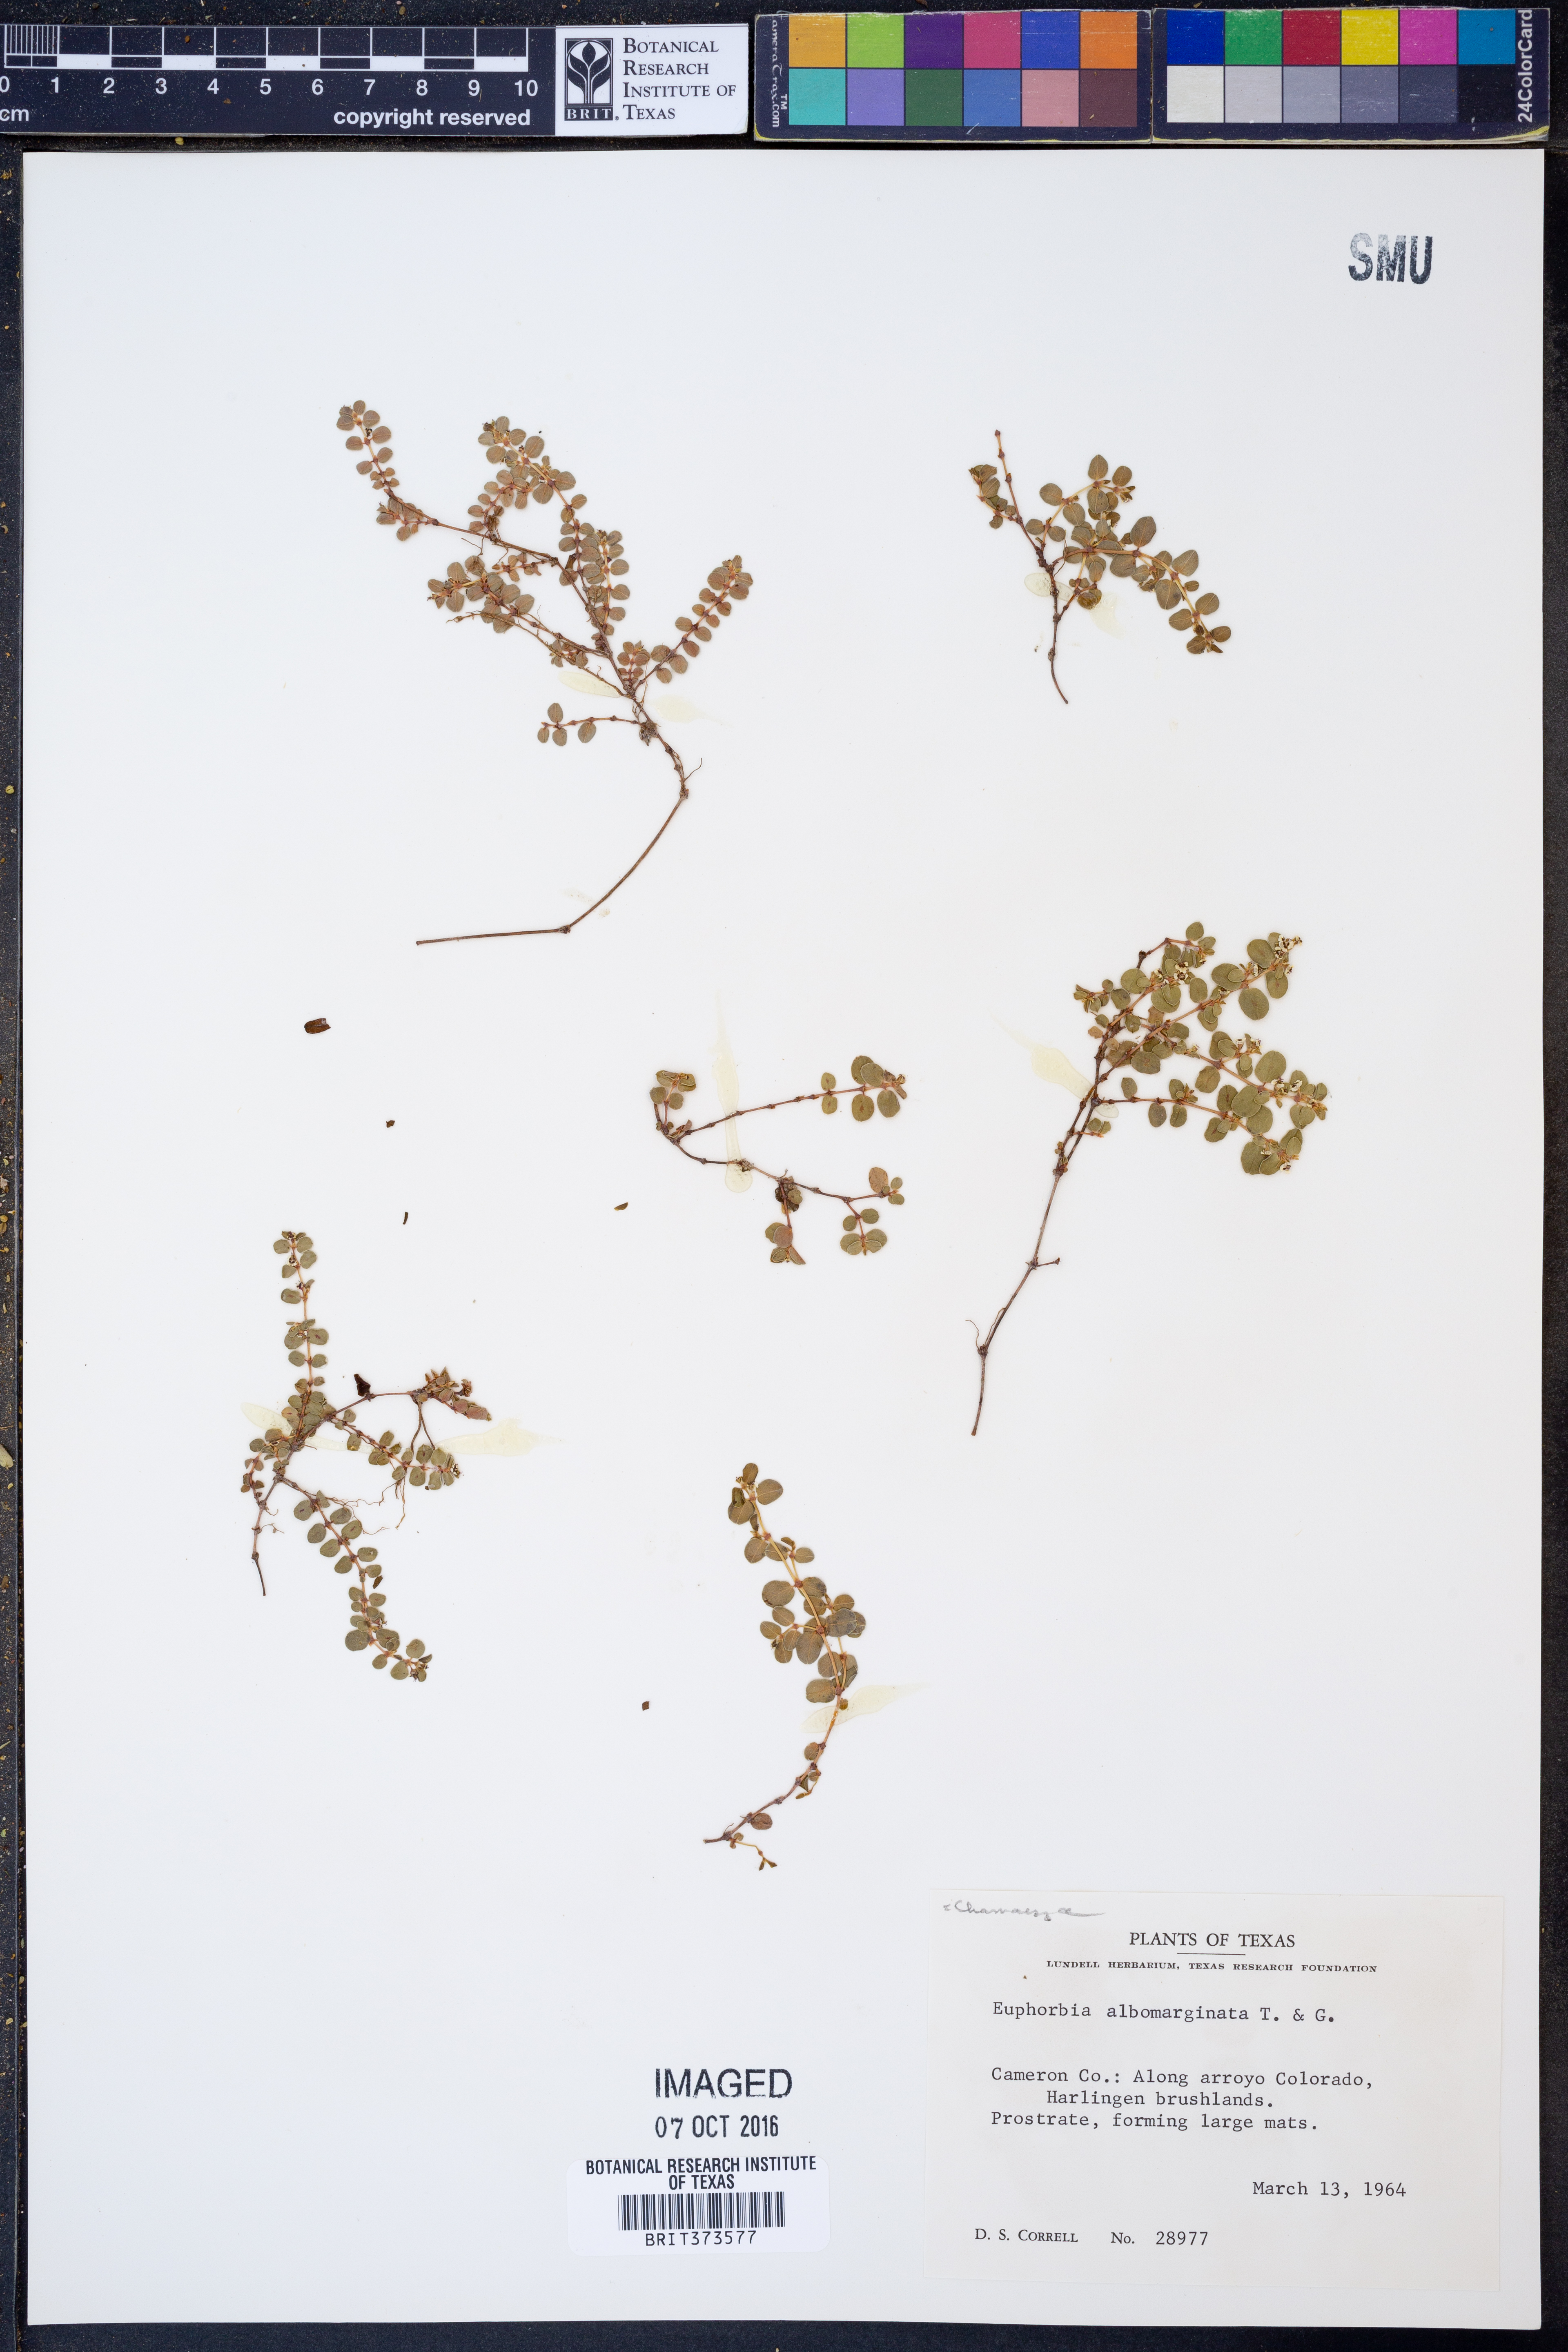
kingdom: Plantae
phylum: Tracheophyta
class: Magnoliopsida
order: Malpighiales
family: Euphorbiaceae
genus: Euphorbia
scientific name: Euphorbia albomarginata
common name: Whitemargin sandmat
